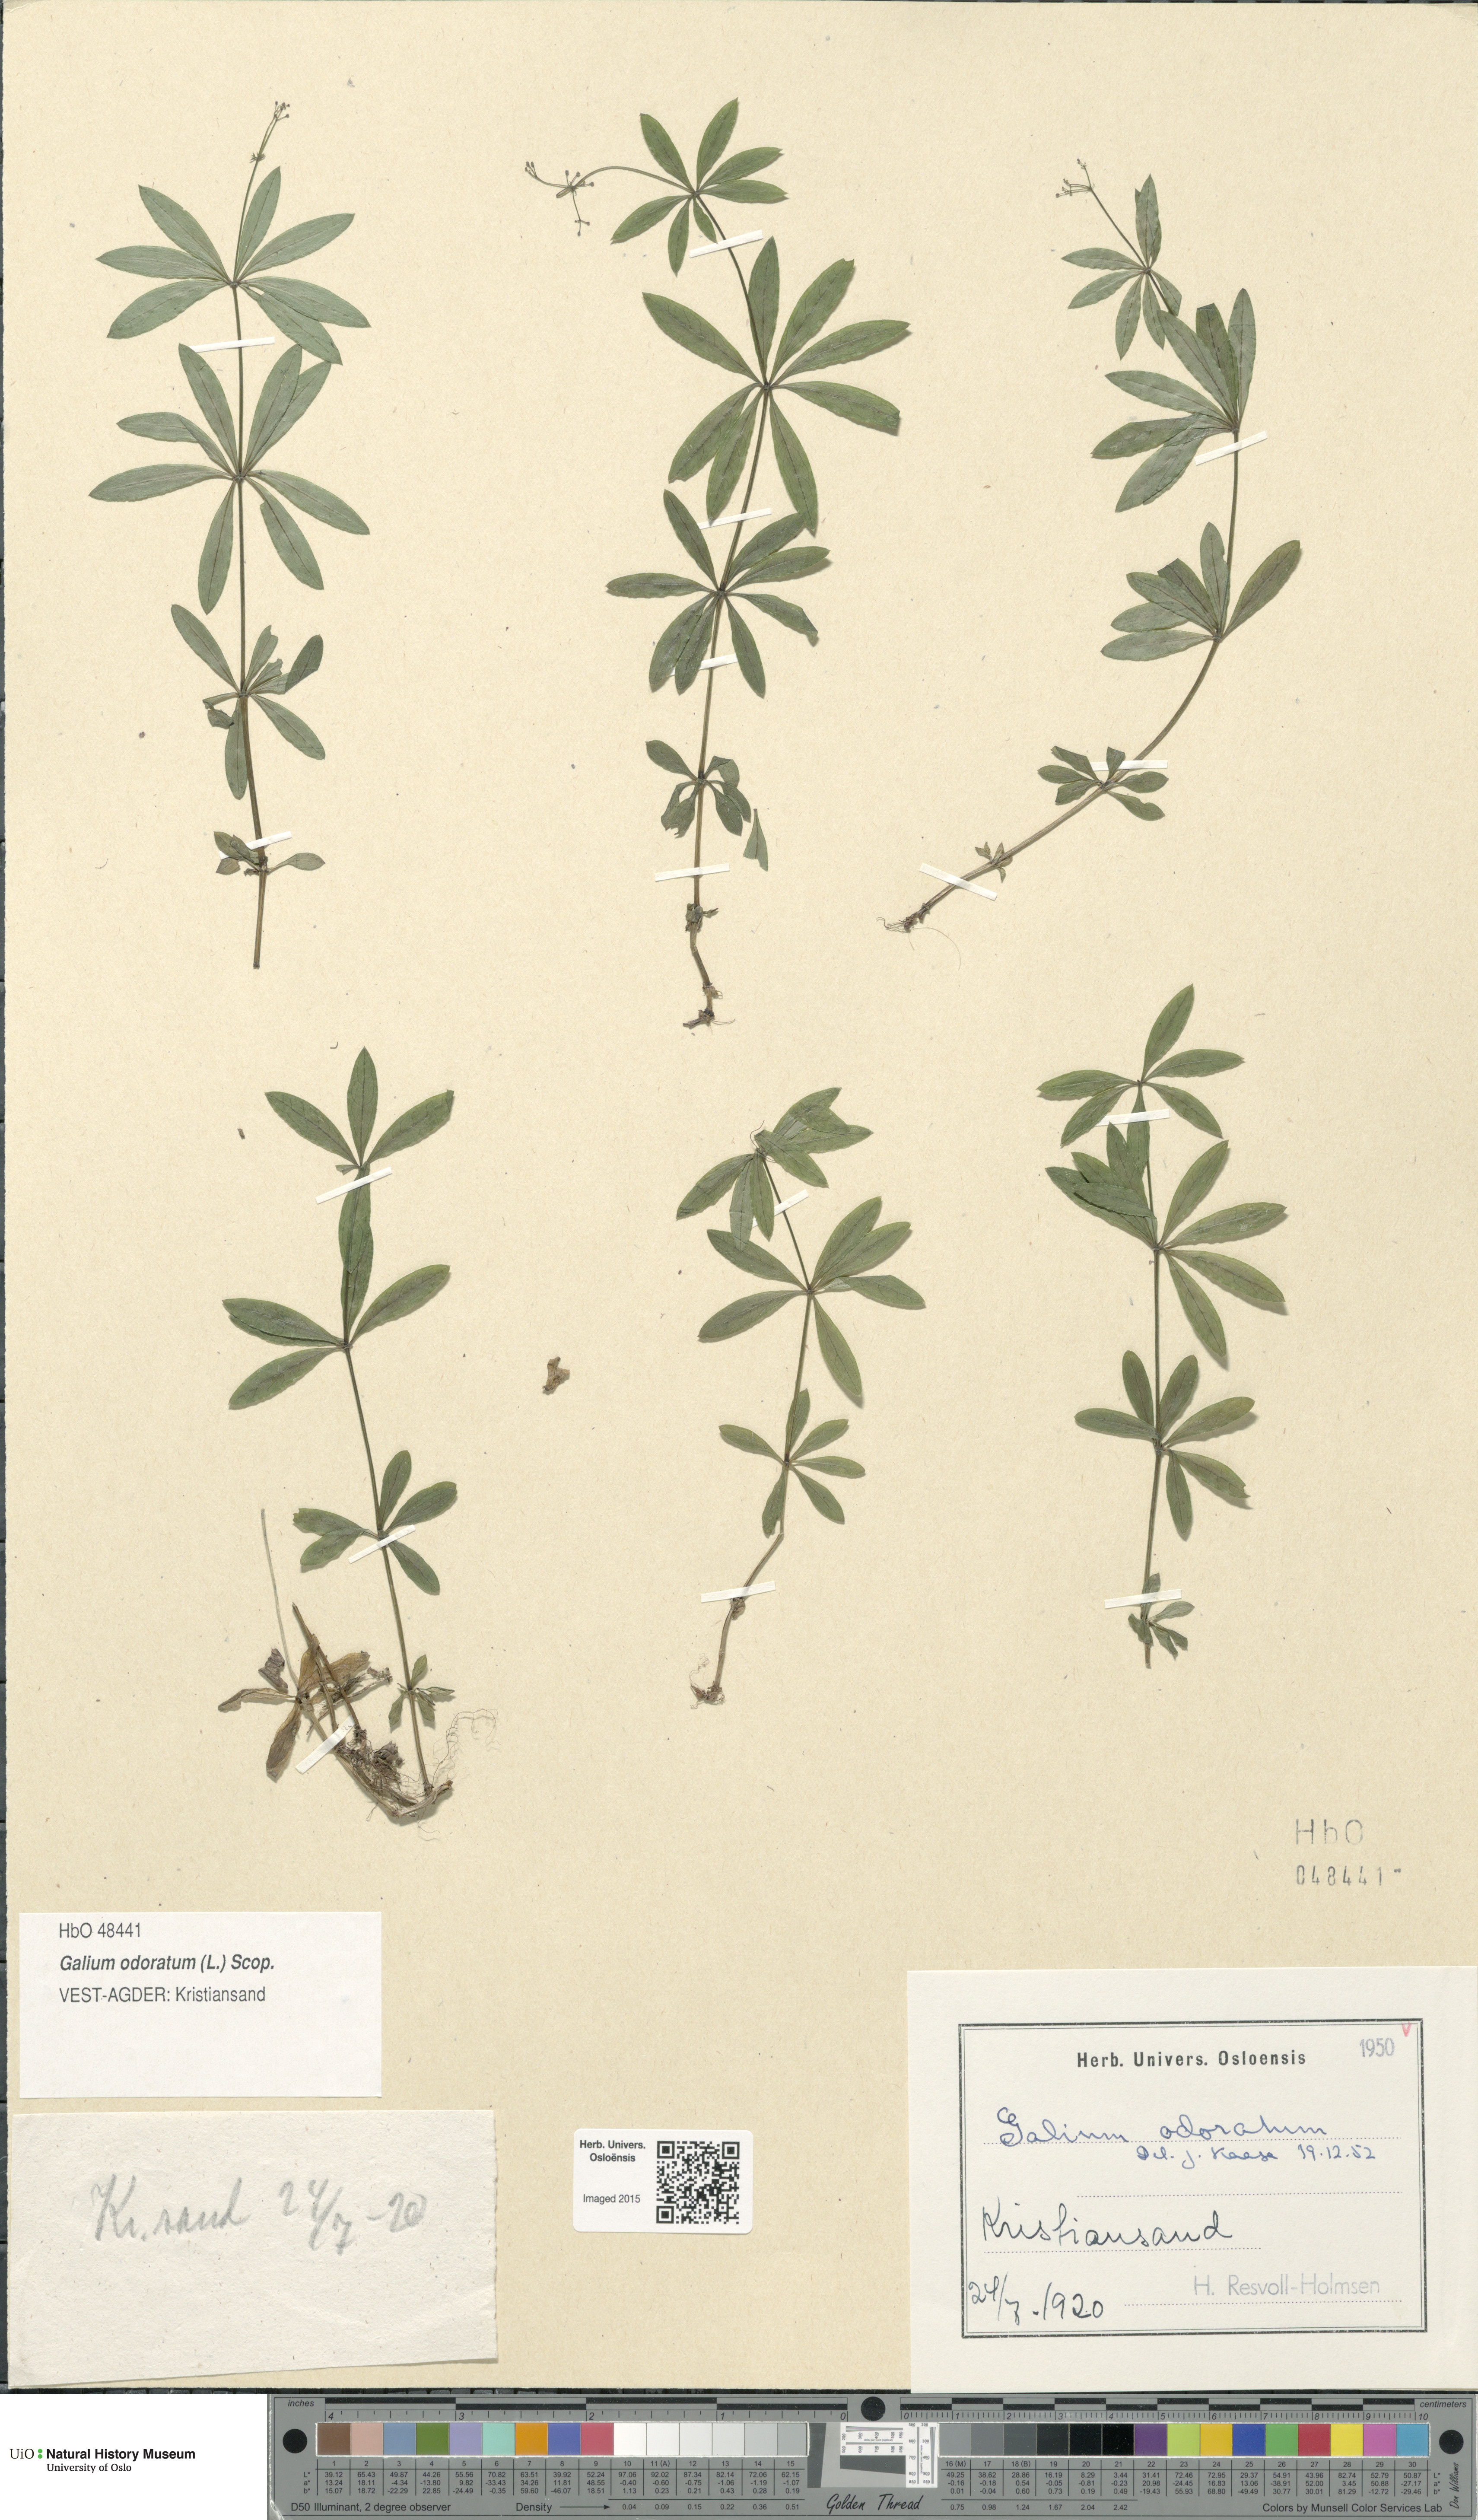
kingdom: Plantae
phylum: Tracheophyta
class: Magnoliopsida
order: Gentianales
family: Rubiaceae
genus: Galium
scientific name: Galium odoratum
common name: Sweet woodruff
